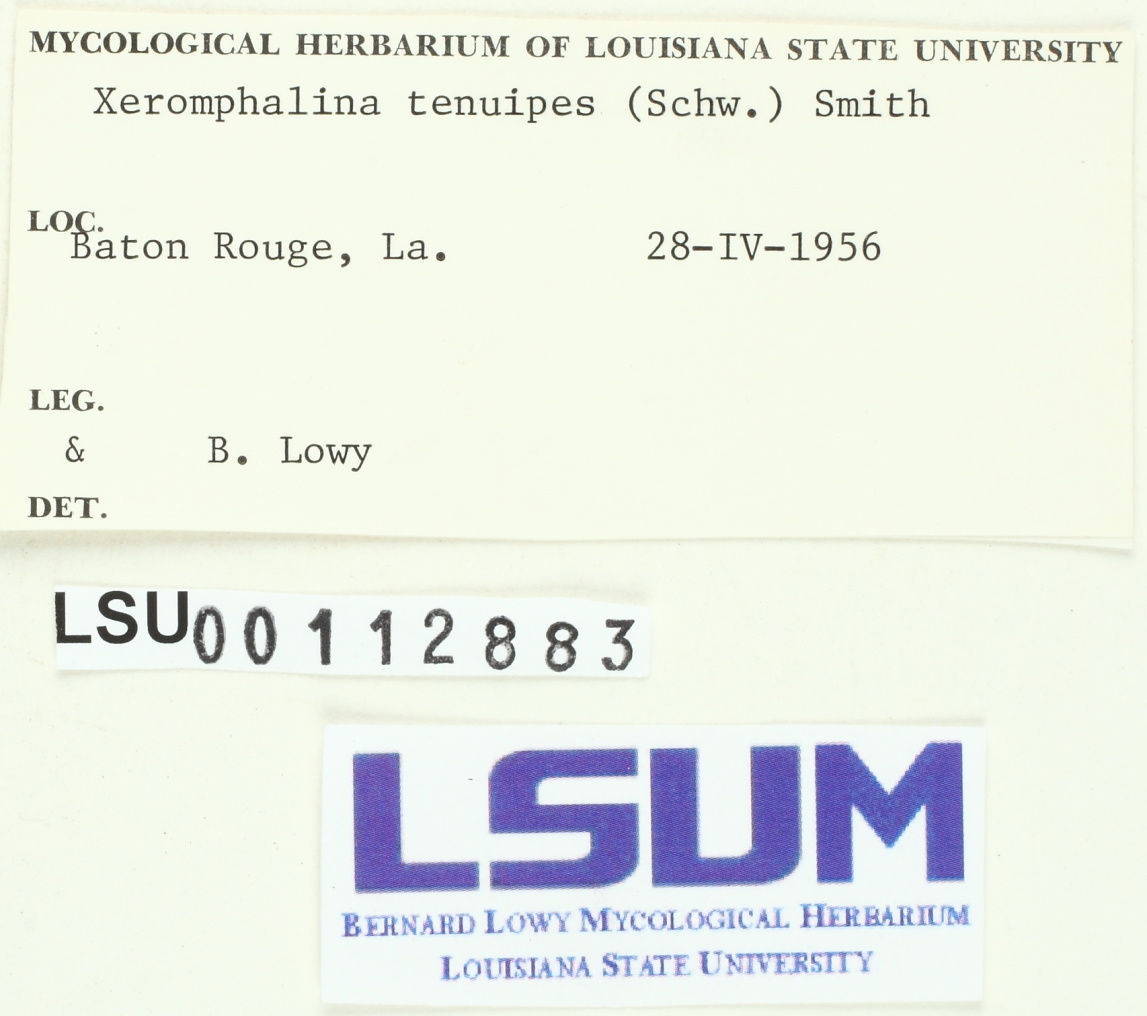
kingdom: Fungi
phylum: Basidiomycota
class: Agaricomycetes
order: Agaricales
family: Mycenaceae
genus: Xeromphalina
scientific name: Xeromphalina tenuipes
